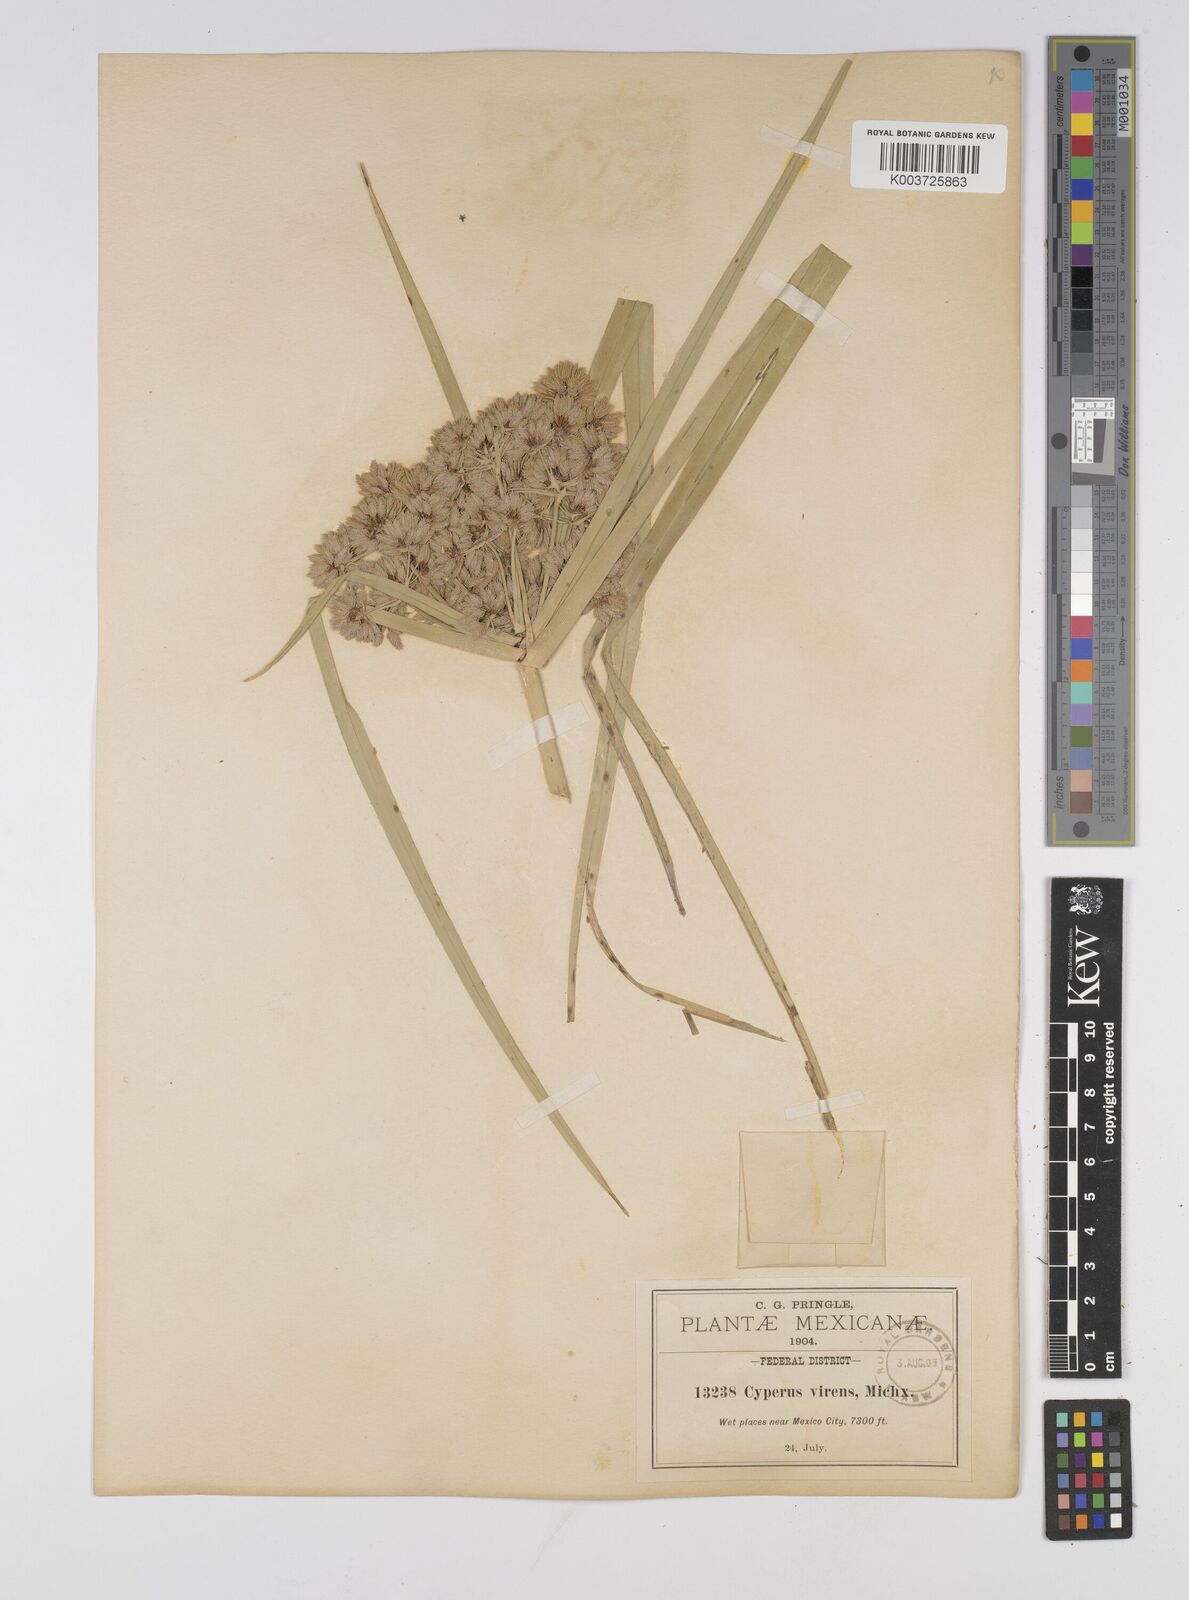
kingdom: Plantae
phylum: Tracheophyta
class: Liliopsida
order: Poales
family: Cyperaceae
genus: Cyperus
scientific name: Cyperus virens
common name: Green flatsedge
